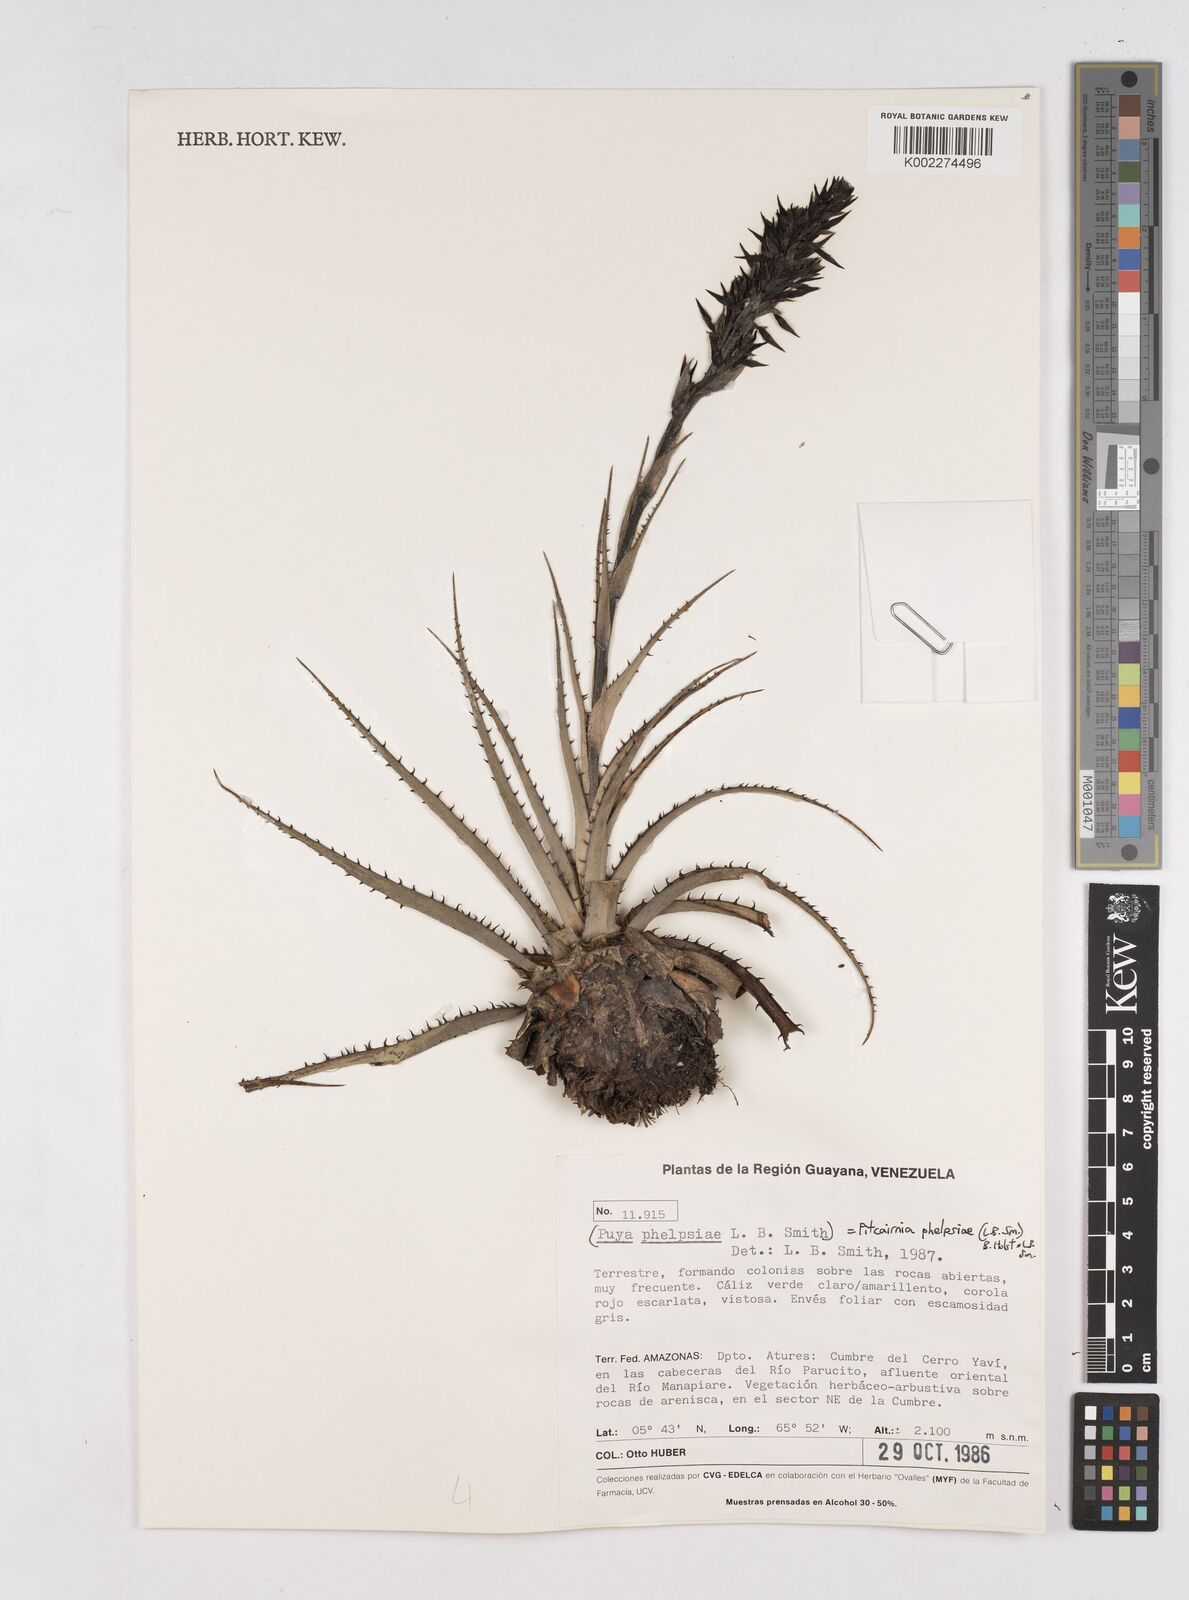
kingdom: Plantae
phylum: Tracheophyta
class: Liliopsida
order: Poales
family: Bromeliaceae
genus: Pitcairnia
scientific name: Pitcairnia phelpsiae
